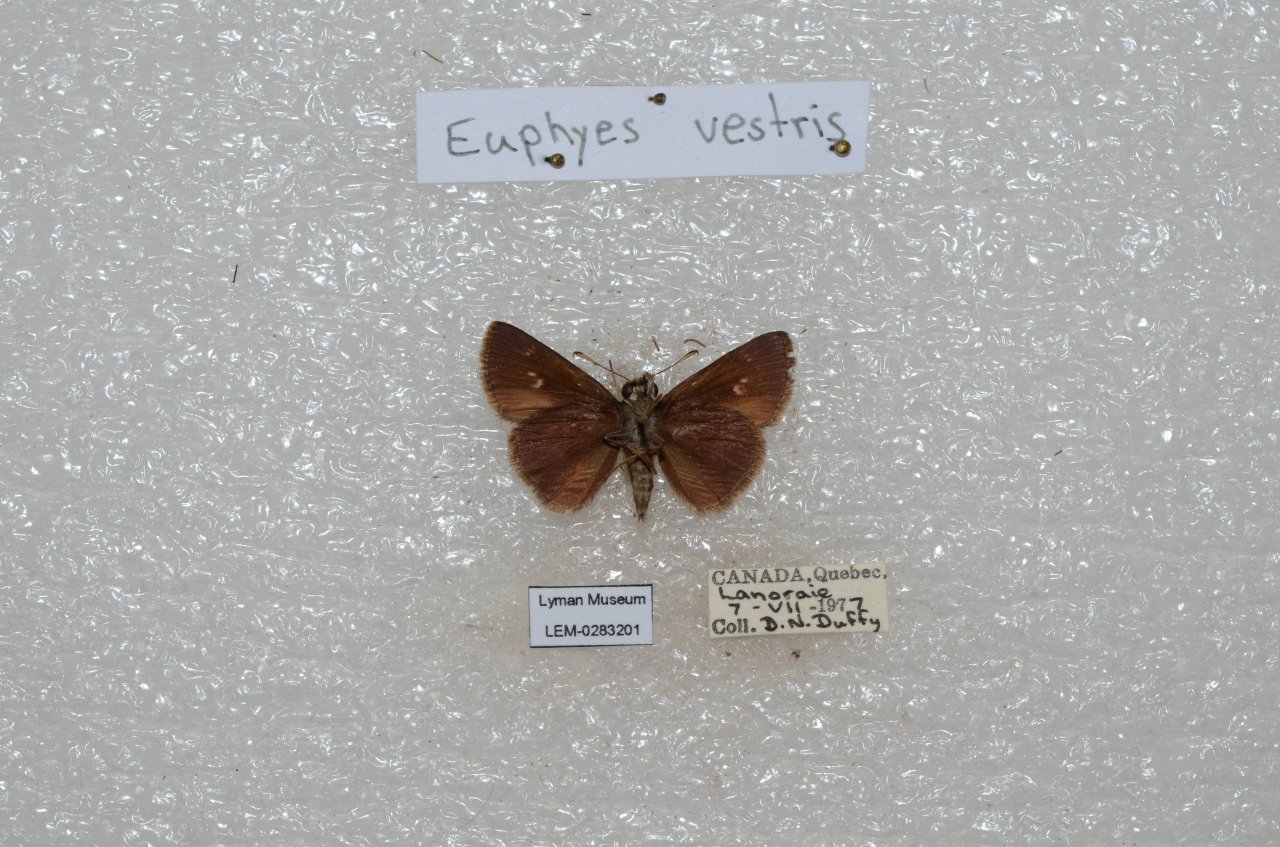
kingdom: Animalia
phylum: Arthropoda
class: Insecta
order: Lepidoptera
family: Hesperiidae
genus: Euphyes
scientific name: Euphyes vestris
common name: Dun Skipper
